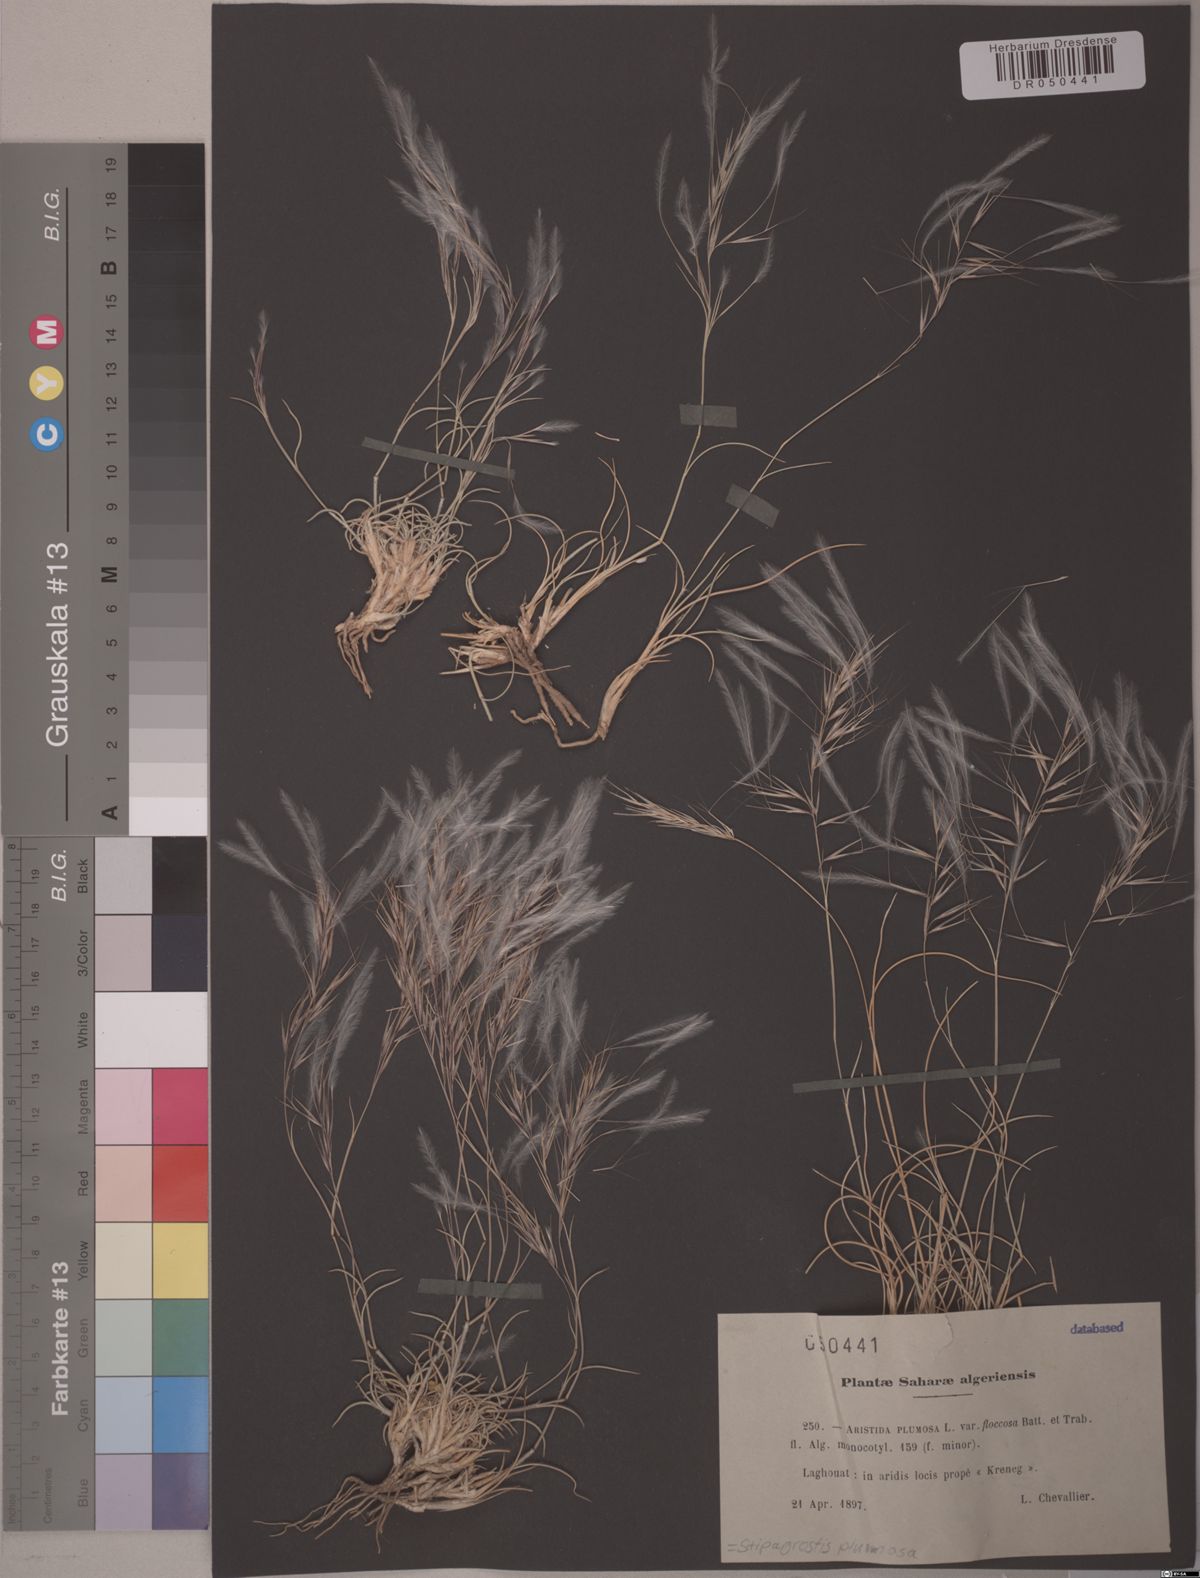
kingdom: Plantae
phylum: Tracheophyta
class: Liliopsida
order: Poales
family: Poaceae
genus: Stipagrostis
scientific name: Stipagrostis plumosa
